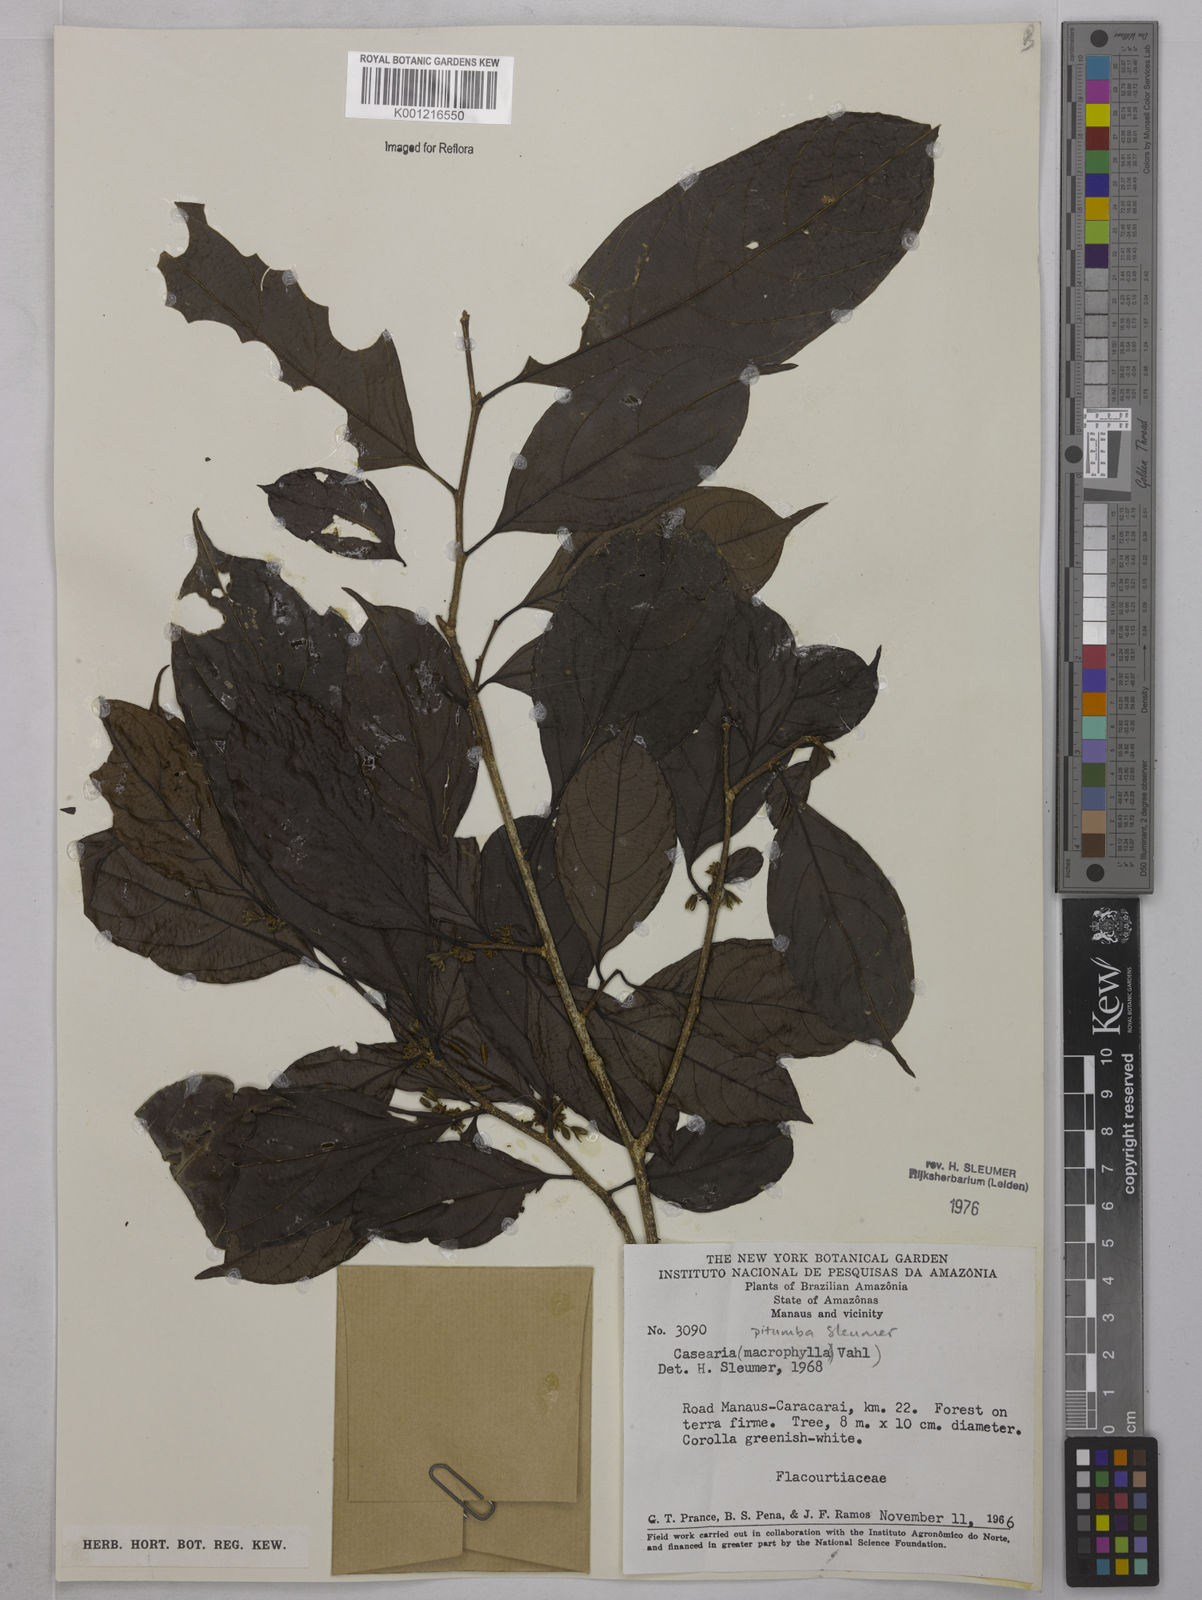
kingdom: Plantae
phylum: Tracheophyta
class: Magnoliopsida
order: Malpighiales
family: Salicaceae
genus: Casearia
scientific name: Casearia pitumba
